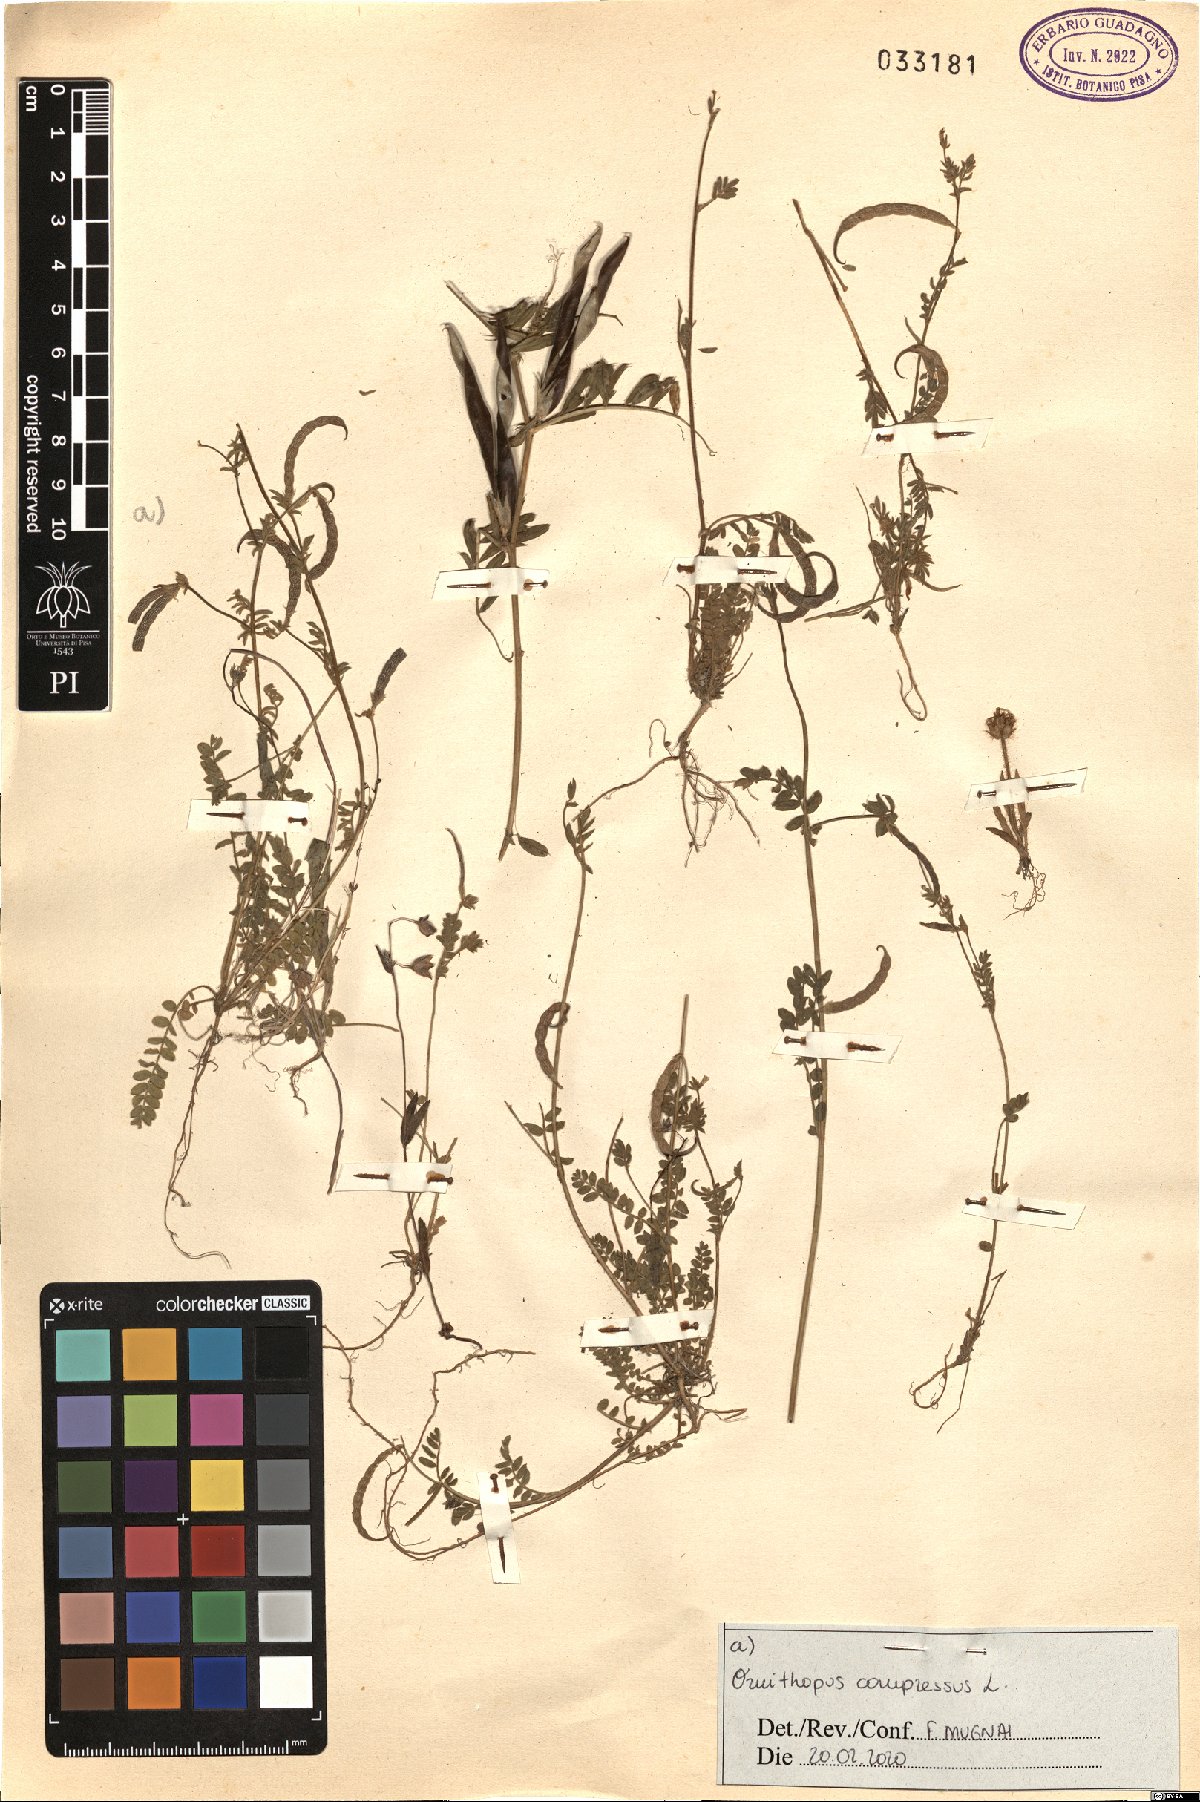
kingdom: Plantae
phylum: Tracheophyta
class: Magnoliopsida
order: Fabales
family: Fabaceae
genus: Ornithopus
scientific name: Ornithopus compressus
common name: Yellow serradella
